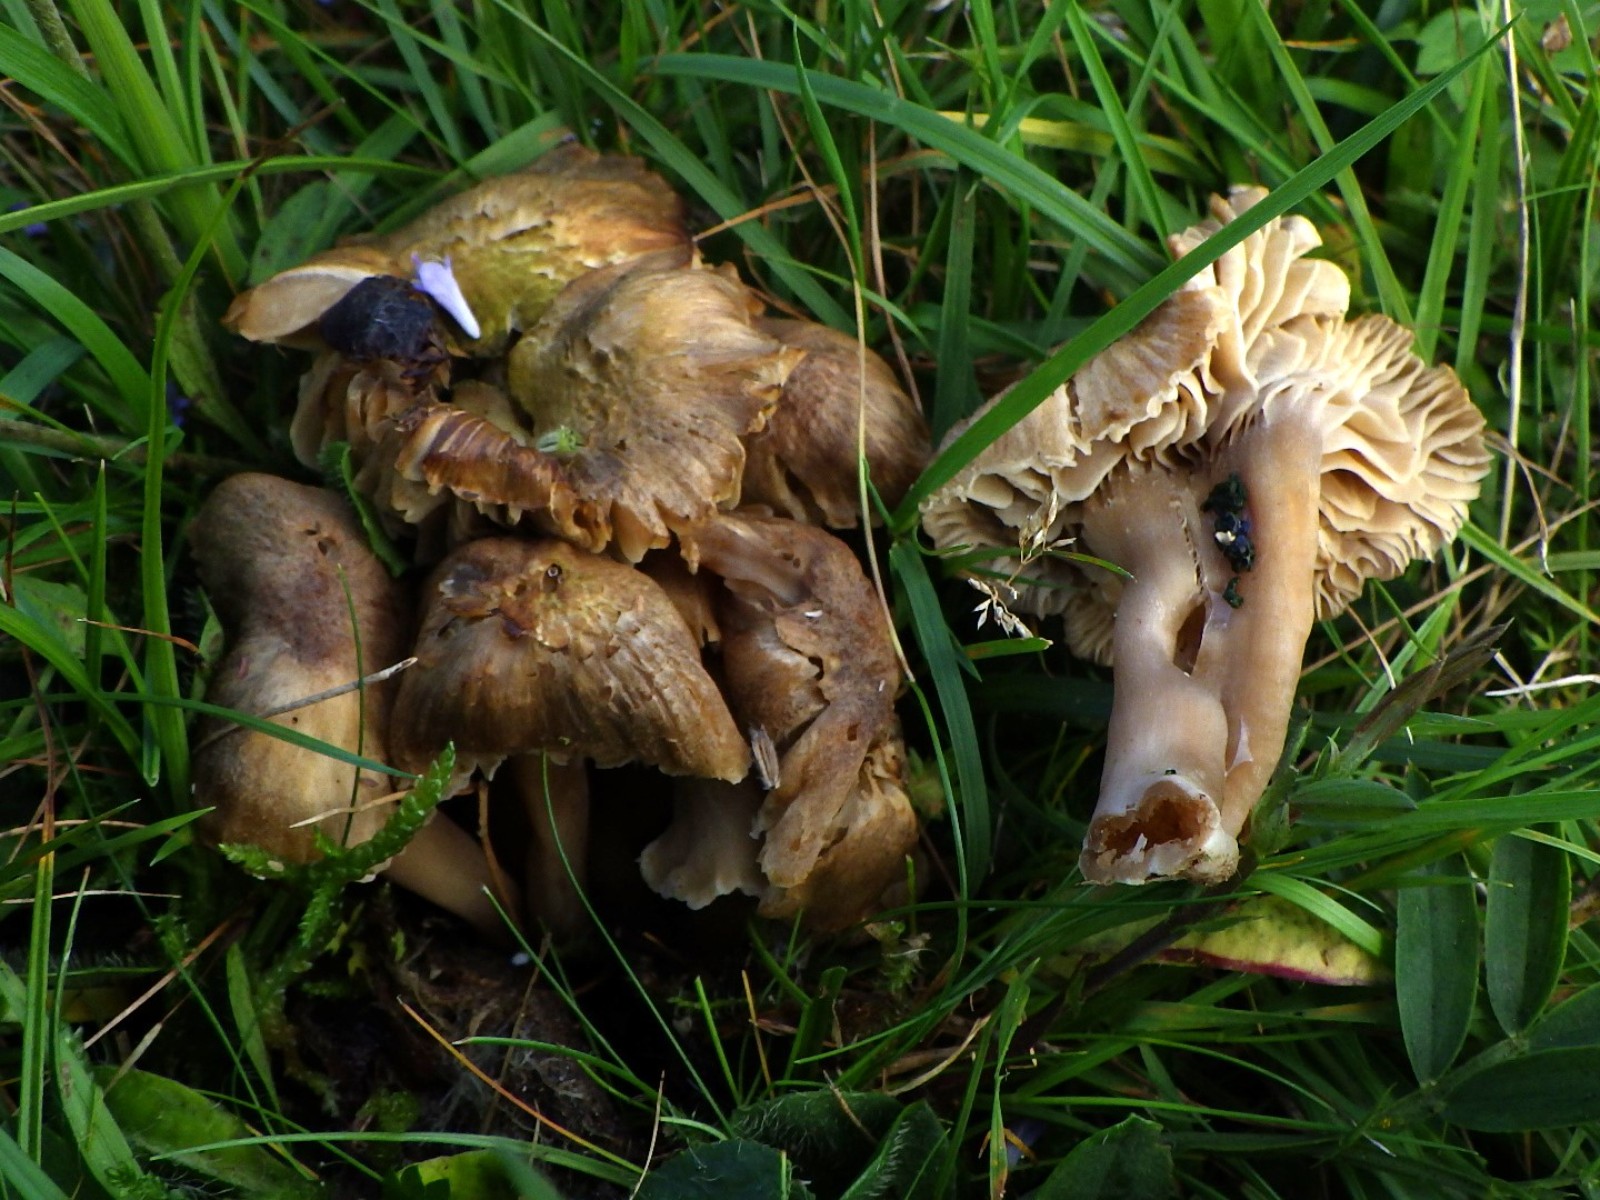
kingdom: Fungi
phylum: Basidiomycota
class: Agaricomycetes
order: Agaricales
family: Clavariaceae
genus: Camarophyllopsis
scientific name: Camarophyllopsis schulzeri
